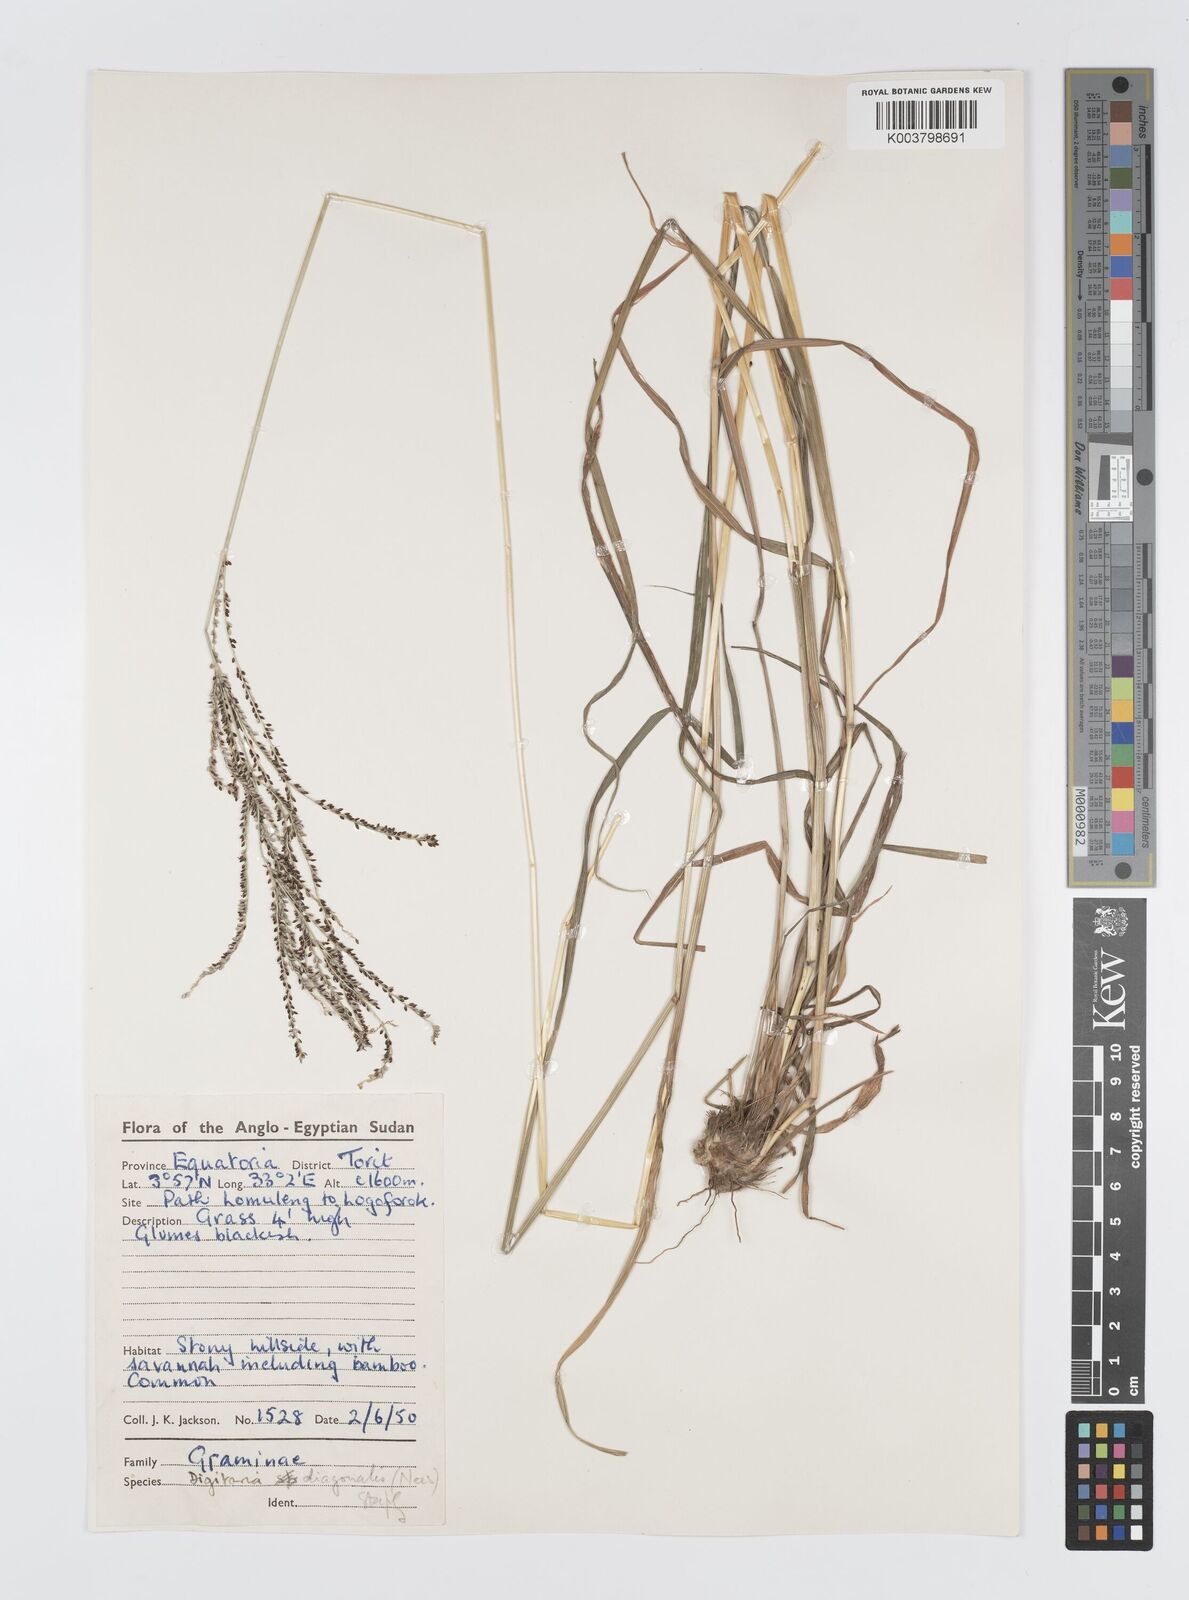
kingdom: Plantae
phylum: Tracheophyta
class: Liliopsida
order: Poales
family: Poaceae
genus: Digitaria
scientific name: Digitaria diagonalis
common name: Brown-seed finger grass
